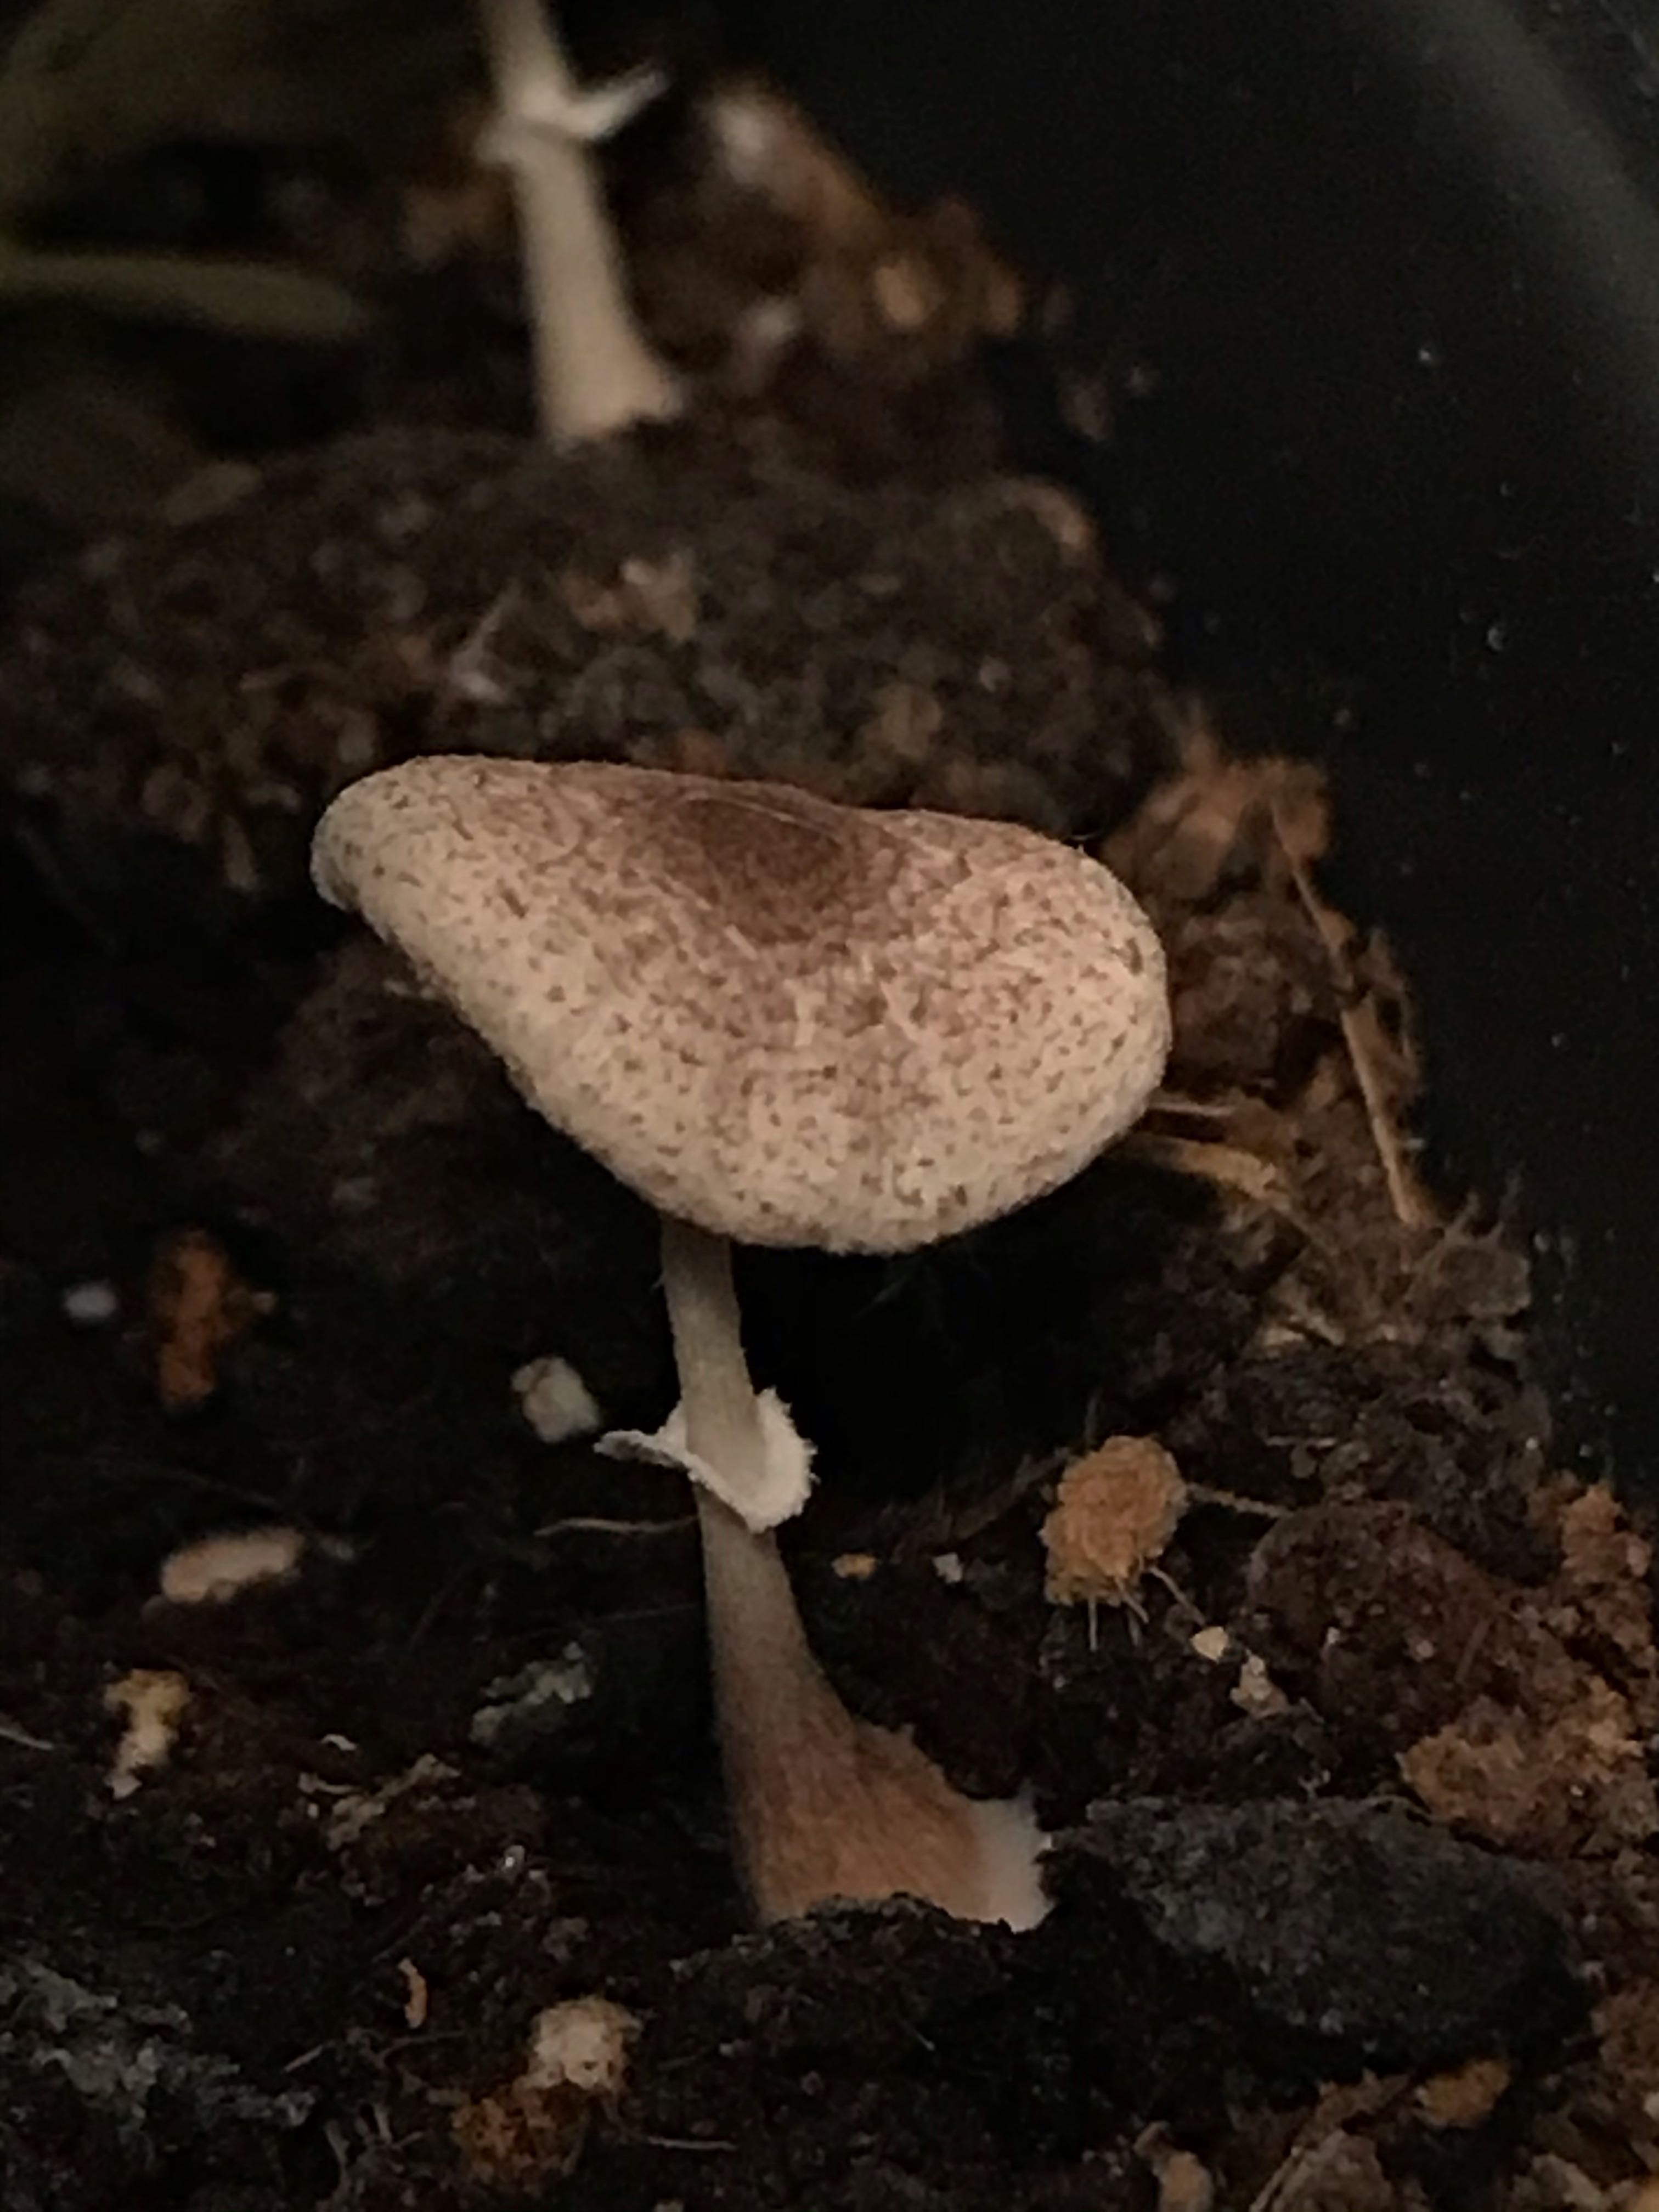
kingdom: Fungi
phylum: Basidiomycota
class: Agaricomycetes
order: Agaricales
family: Agaricaceae
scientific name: Agaricaceae
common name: champignonfamilien
